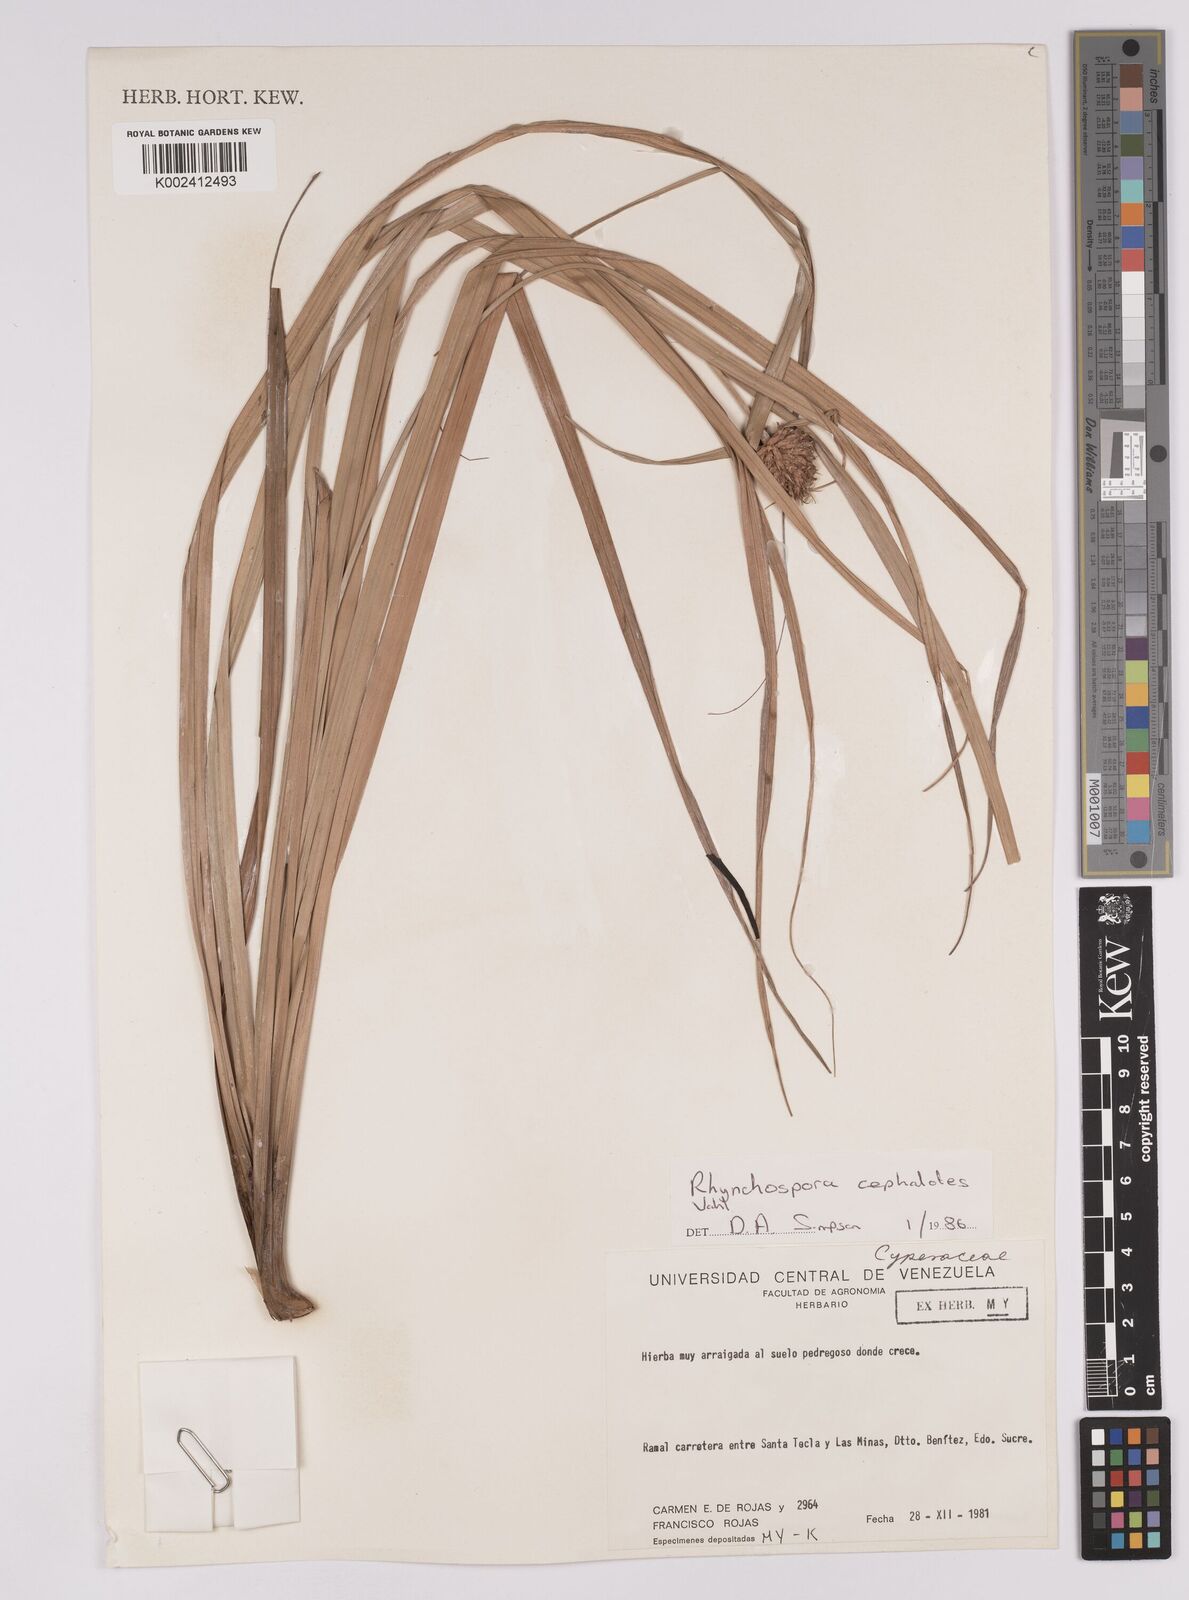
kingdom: Plantae
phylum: Tracheophyta
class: Liliopsida
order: Poales
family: Cyperaceae
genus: Rhynchospora
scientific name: Rhynchospora cephalotes
